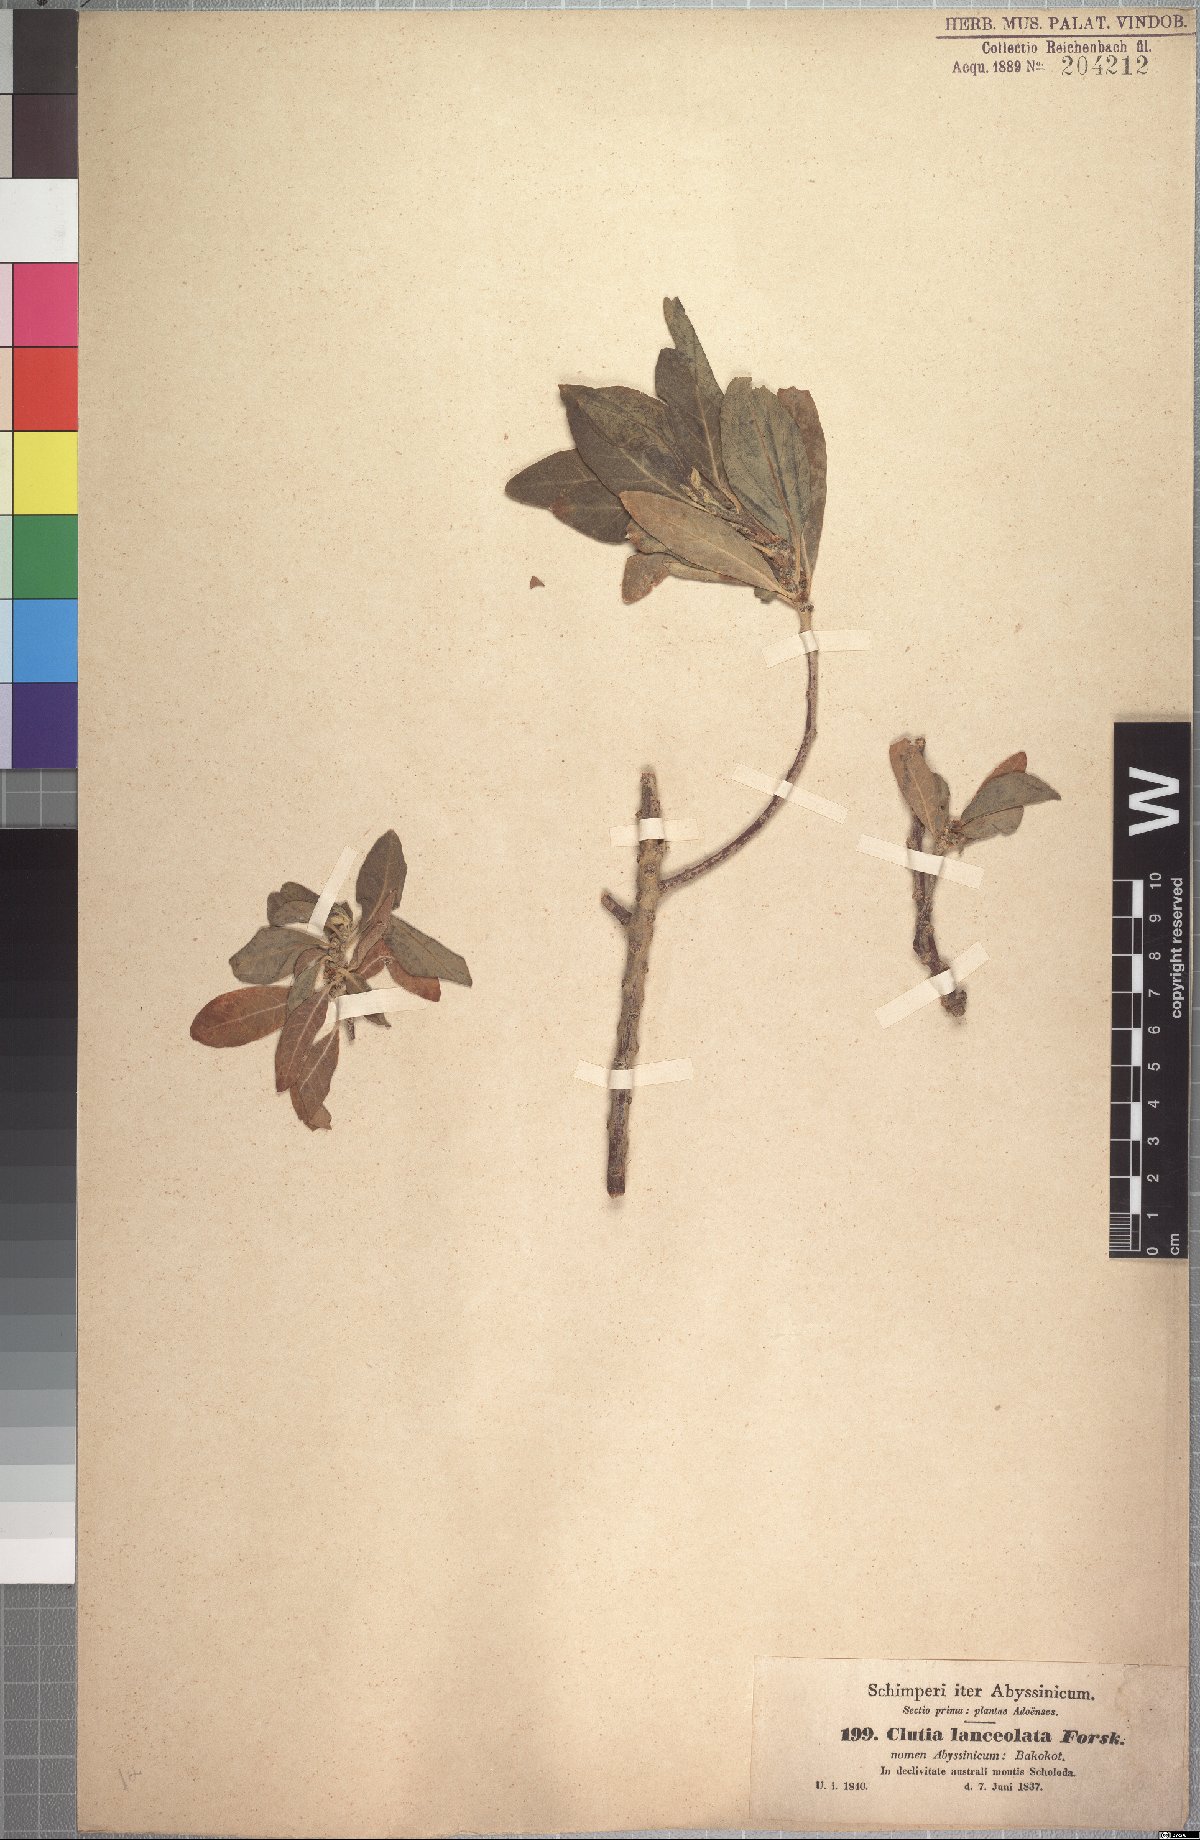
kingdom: Plantae
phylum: Tracheophyta
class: Magnoliopsida
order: Malpighiales
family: Peraceae
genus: Clutia
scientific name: Clutia lanceolata
